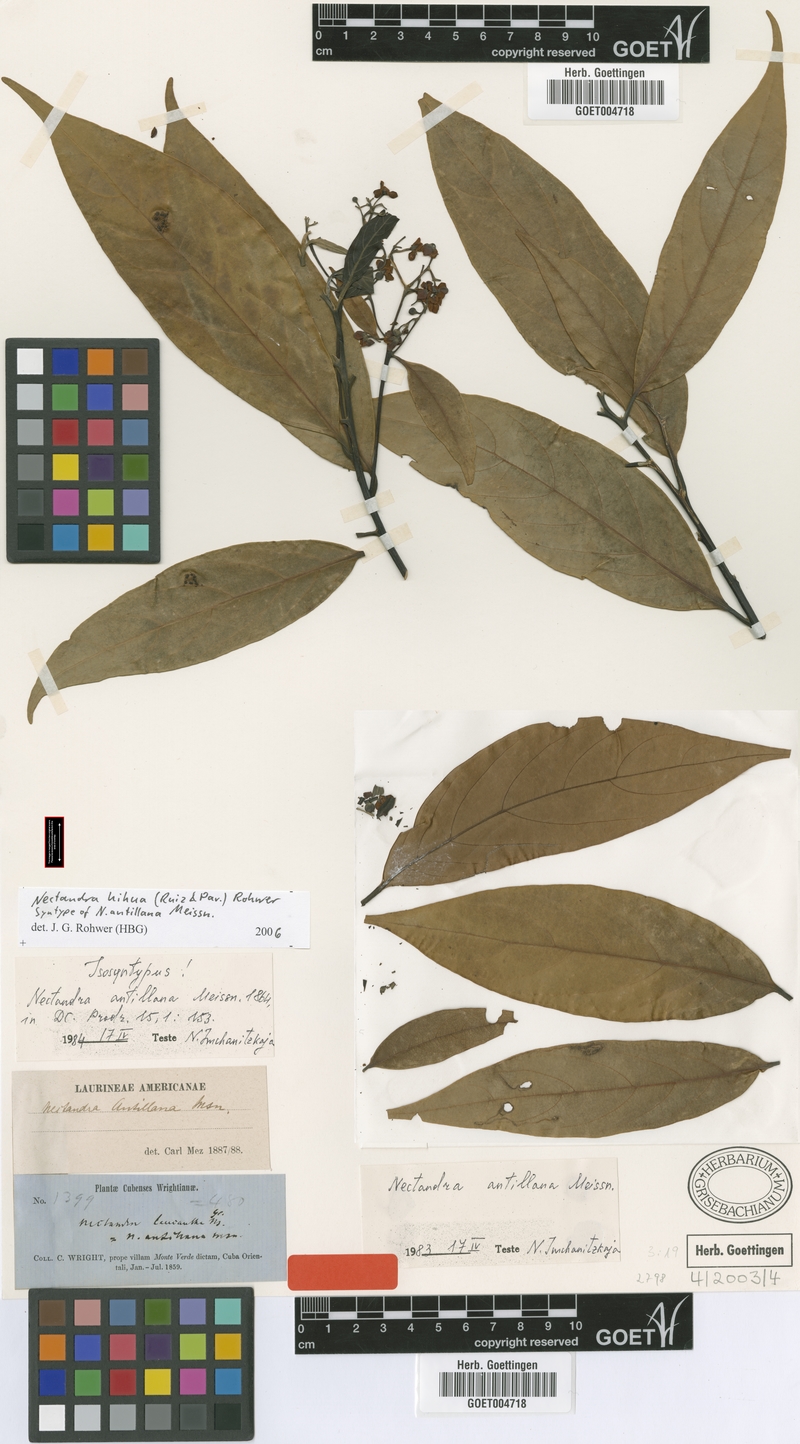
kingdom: Plantae
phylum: Tracheophyta
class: Magnoliopsida
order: Laurales
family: Lauraceae
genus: Nectandra
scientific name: Nectandra hihua
